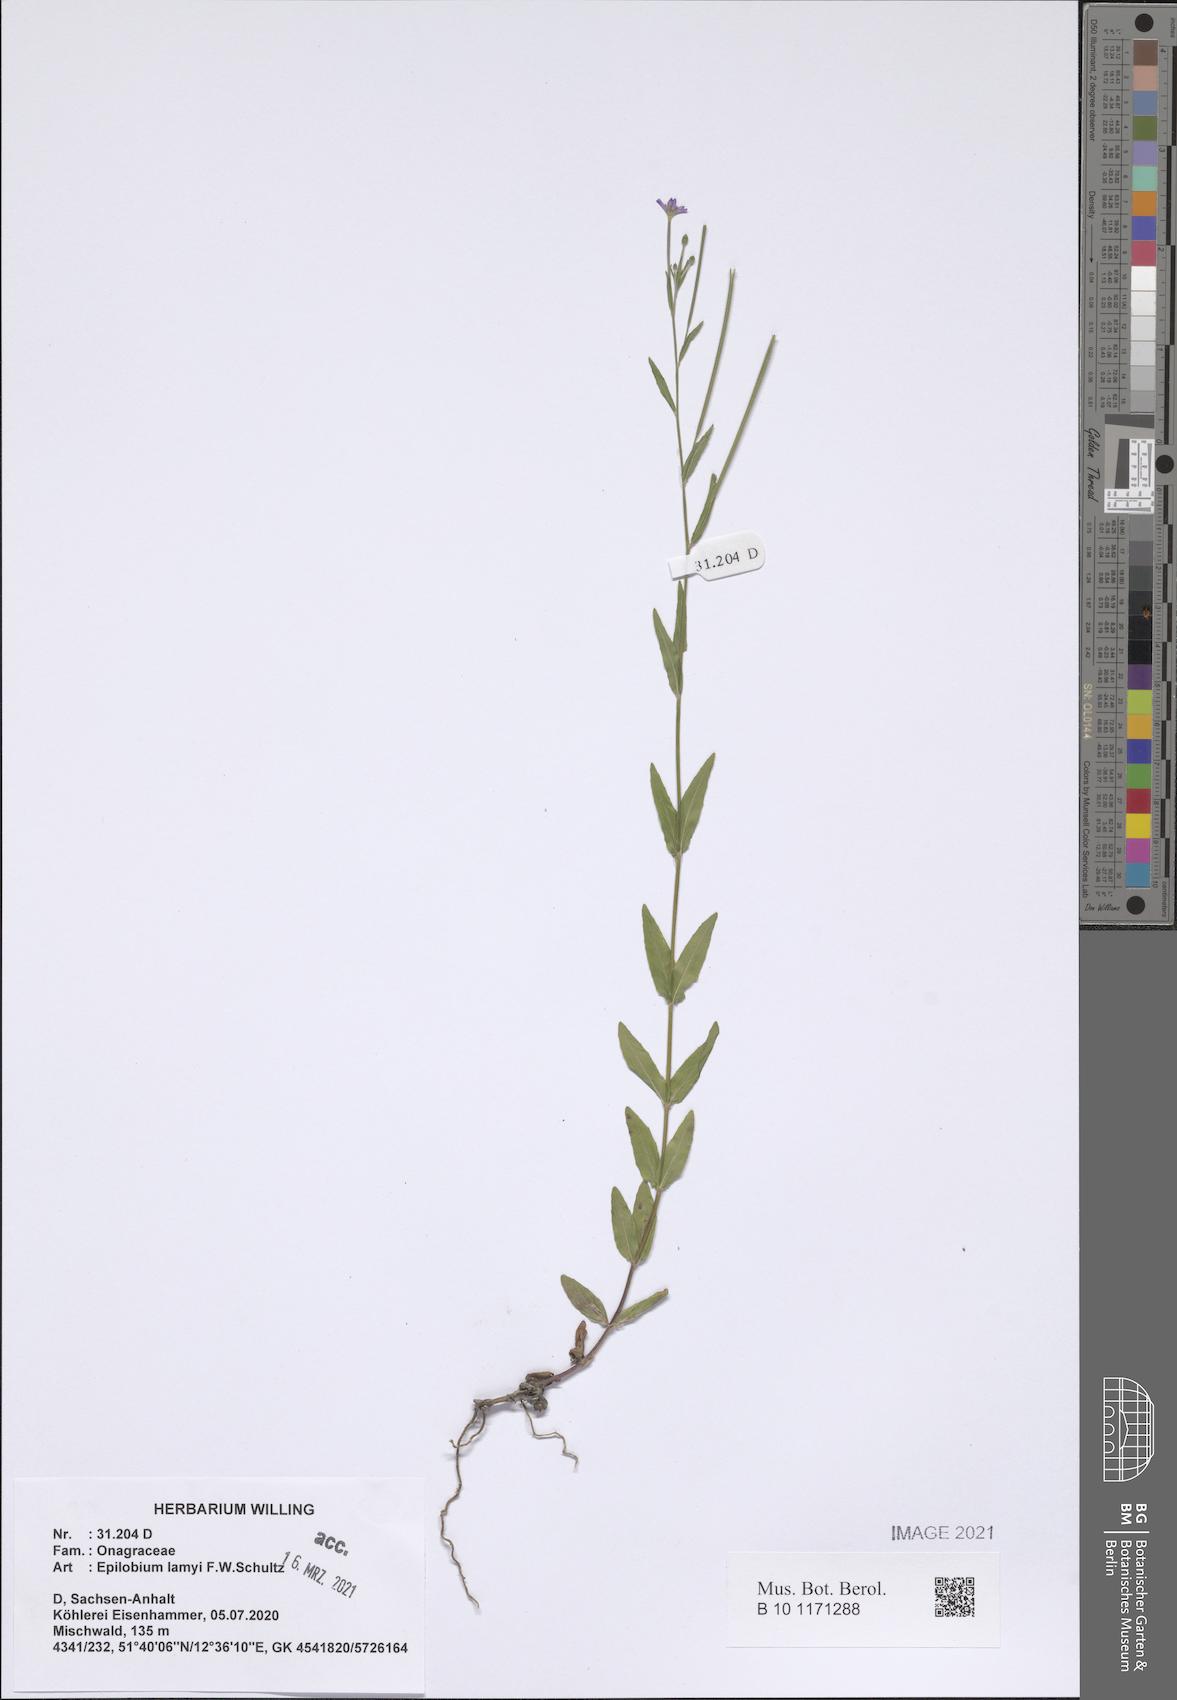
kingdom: Plantae
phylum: Tracheophyta
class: Magnoliopsida
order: Myrtales
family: Onagraceae
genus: Epilobium
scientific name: Epilobium lamyi
